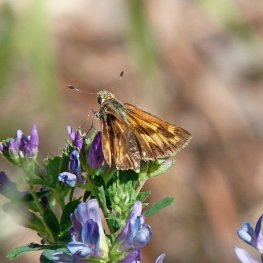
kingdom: Animalia
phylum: Arthropoda
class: Insecta
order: Lepidoptera
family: Hesperiidae
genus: Ochlodes
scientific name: Ochlodes sylvanoides
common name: Woodland Skipper
